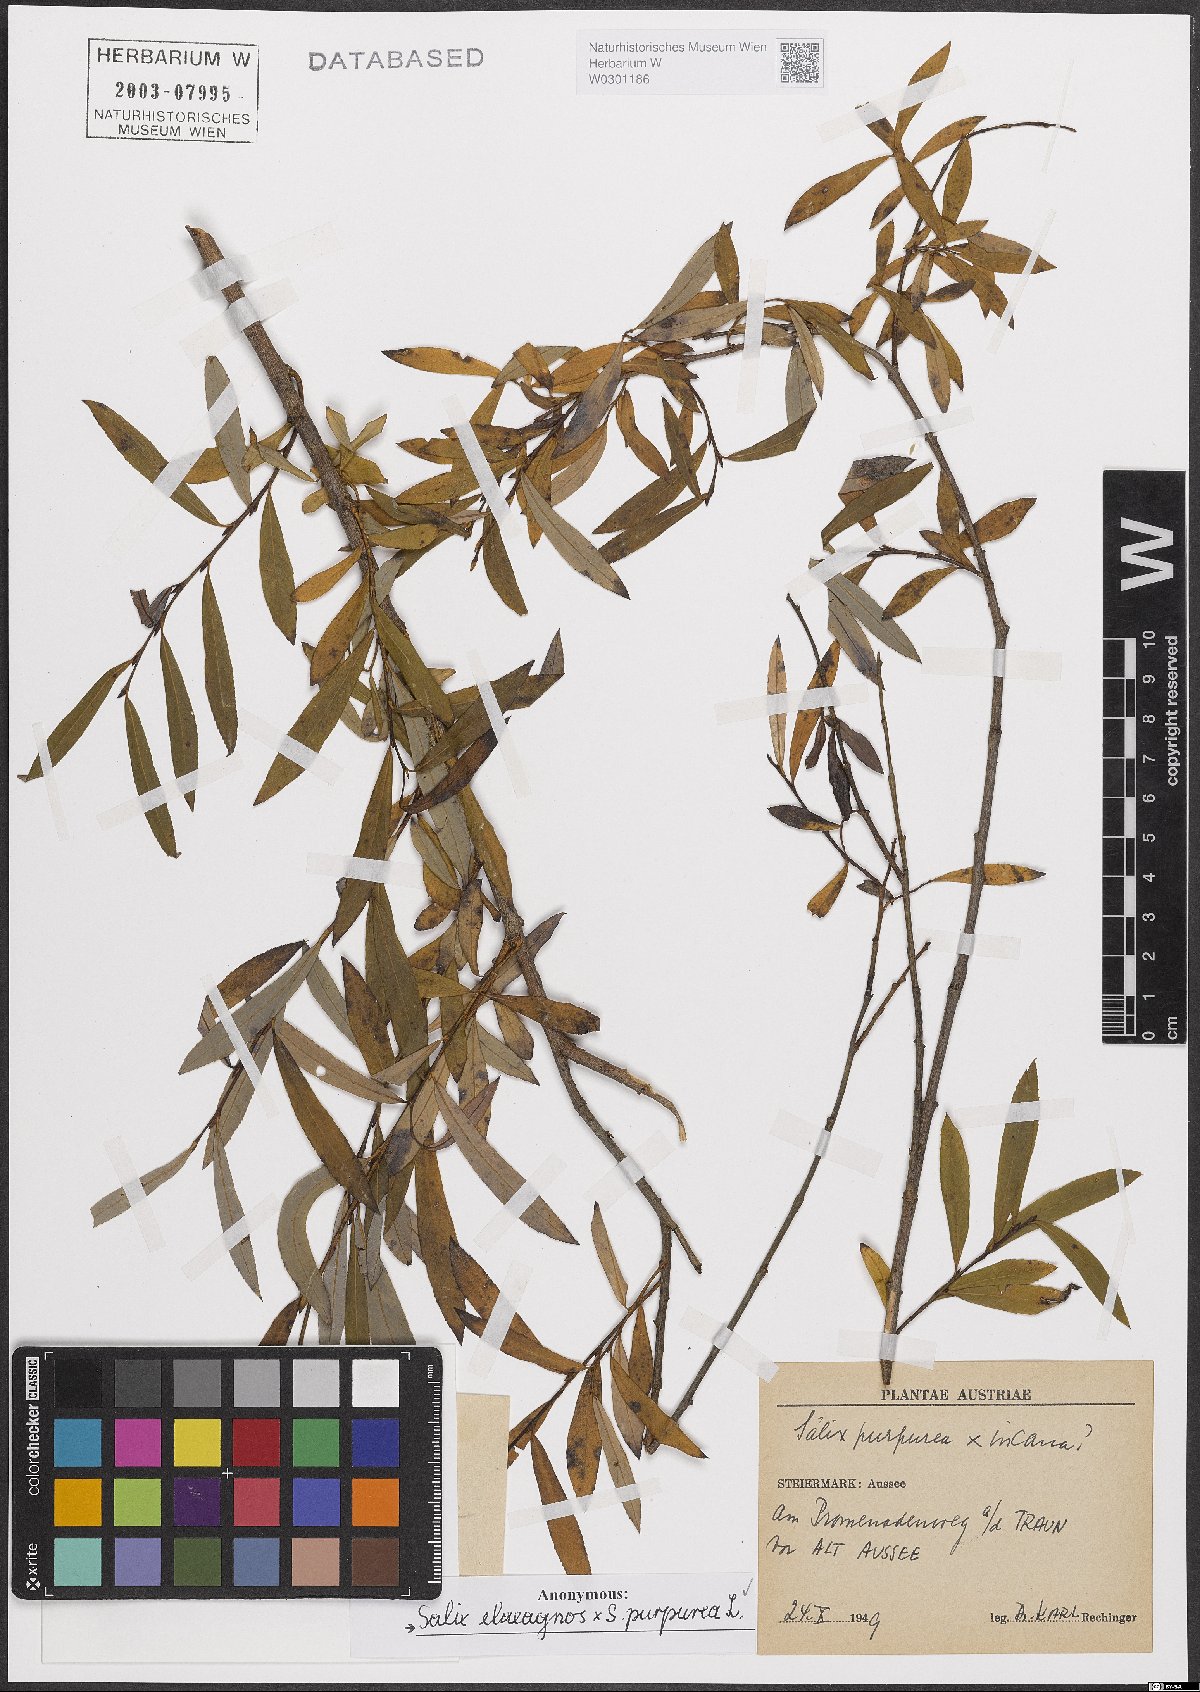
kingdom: Plantae
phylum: Tracheophyta
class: Magnoliopsida
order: Malpighiales
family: Salicaceae
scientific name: Salicaceae
